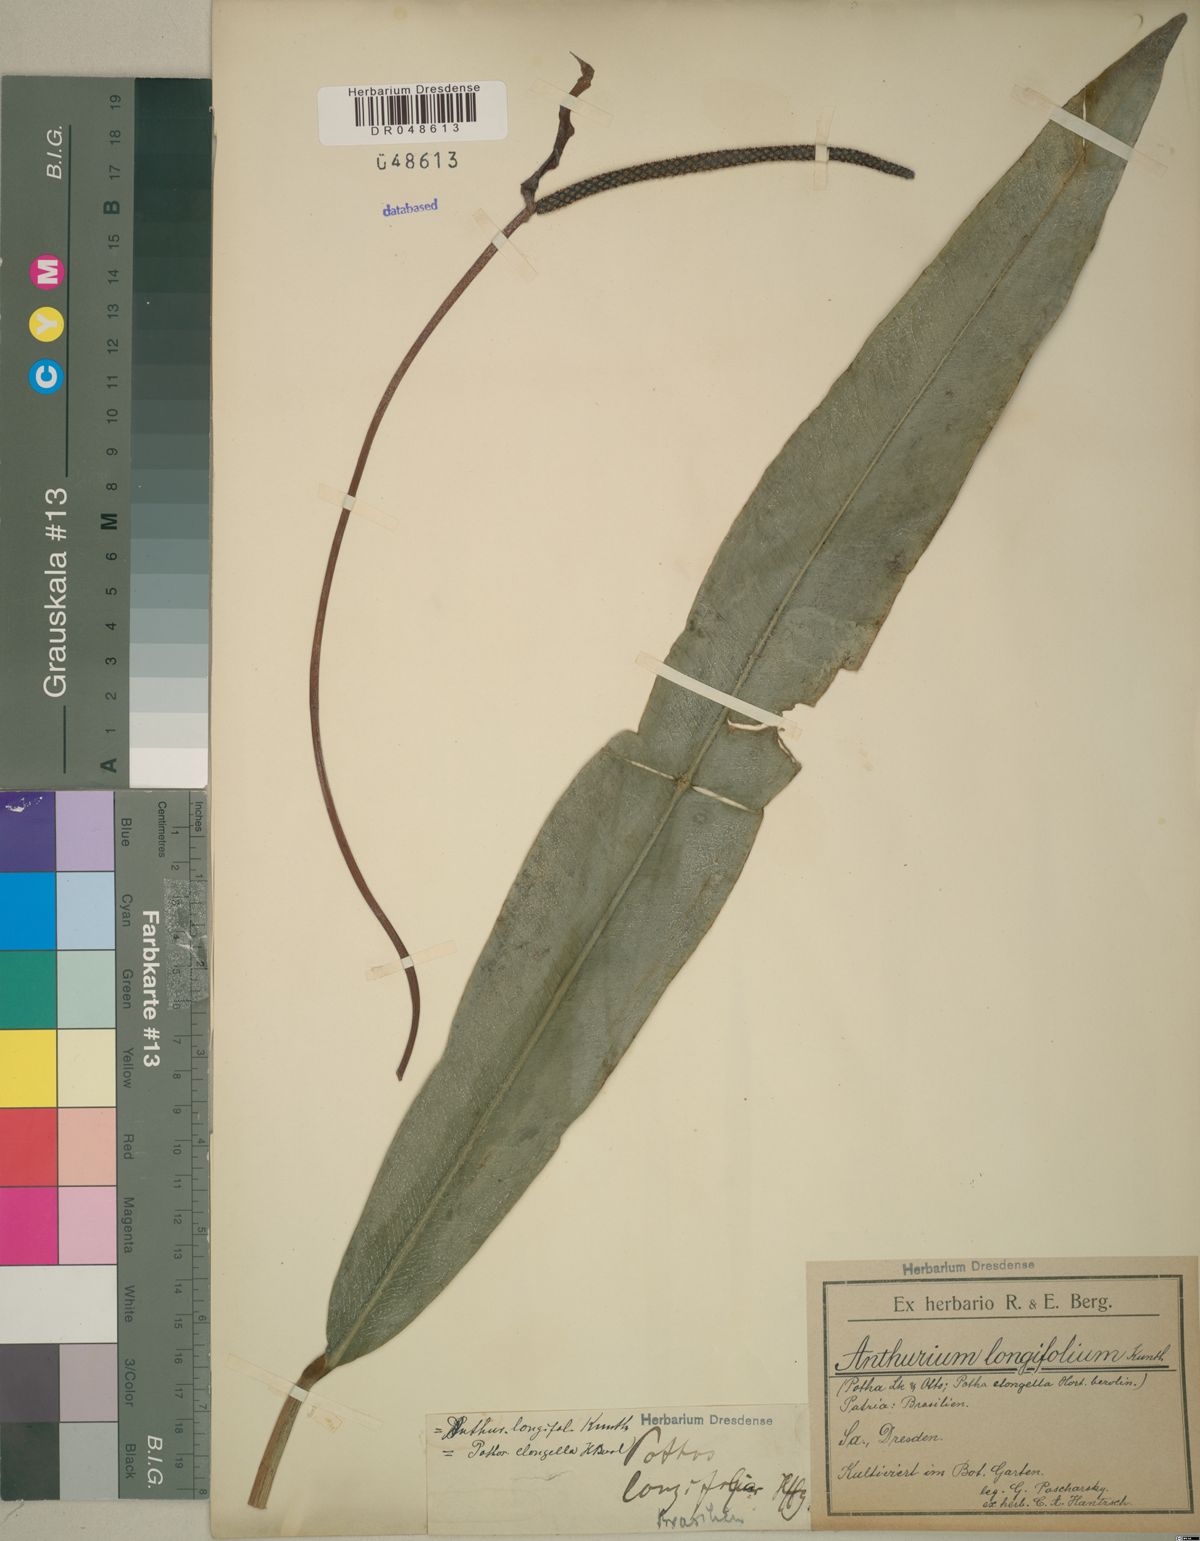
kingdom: Plantae
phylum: Tracheophyta
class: Liliopsida
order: Alismatales
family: Araceae
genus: Anthurium
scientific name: Anthurium longifolium
